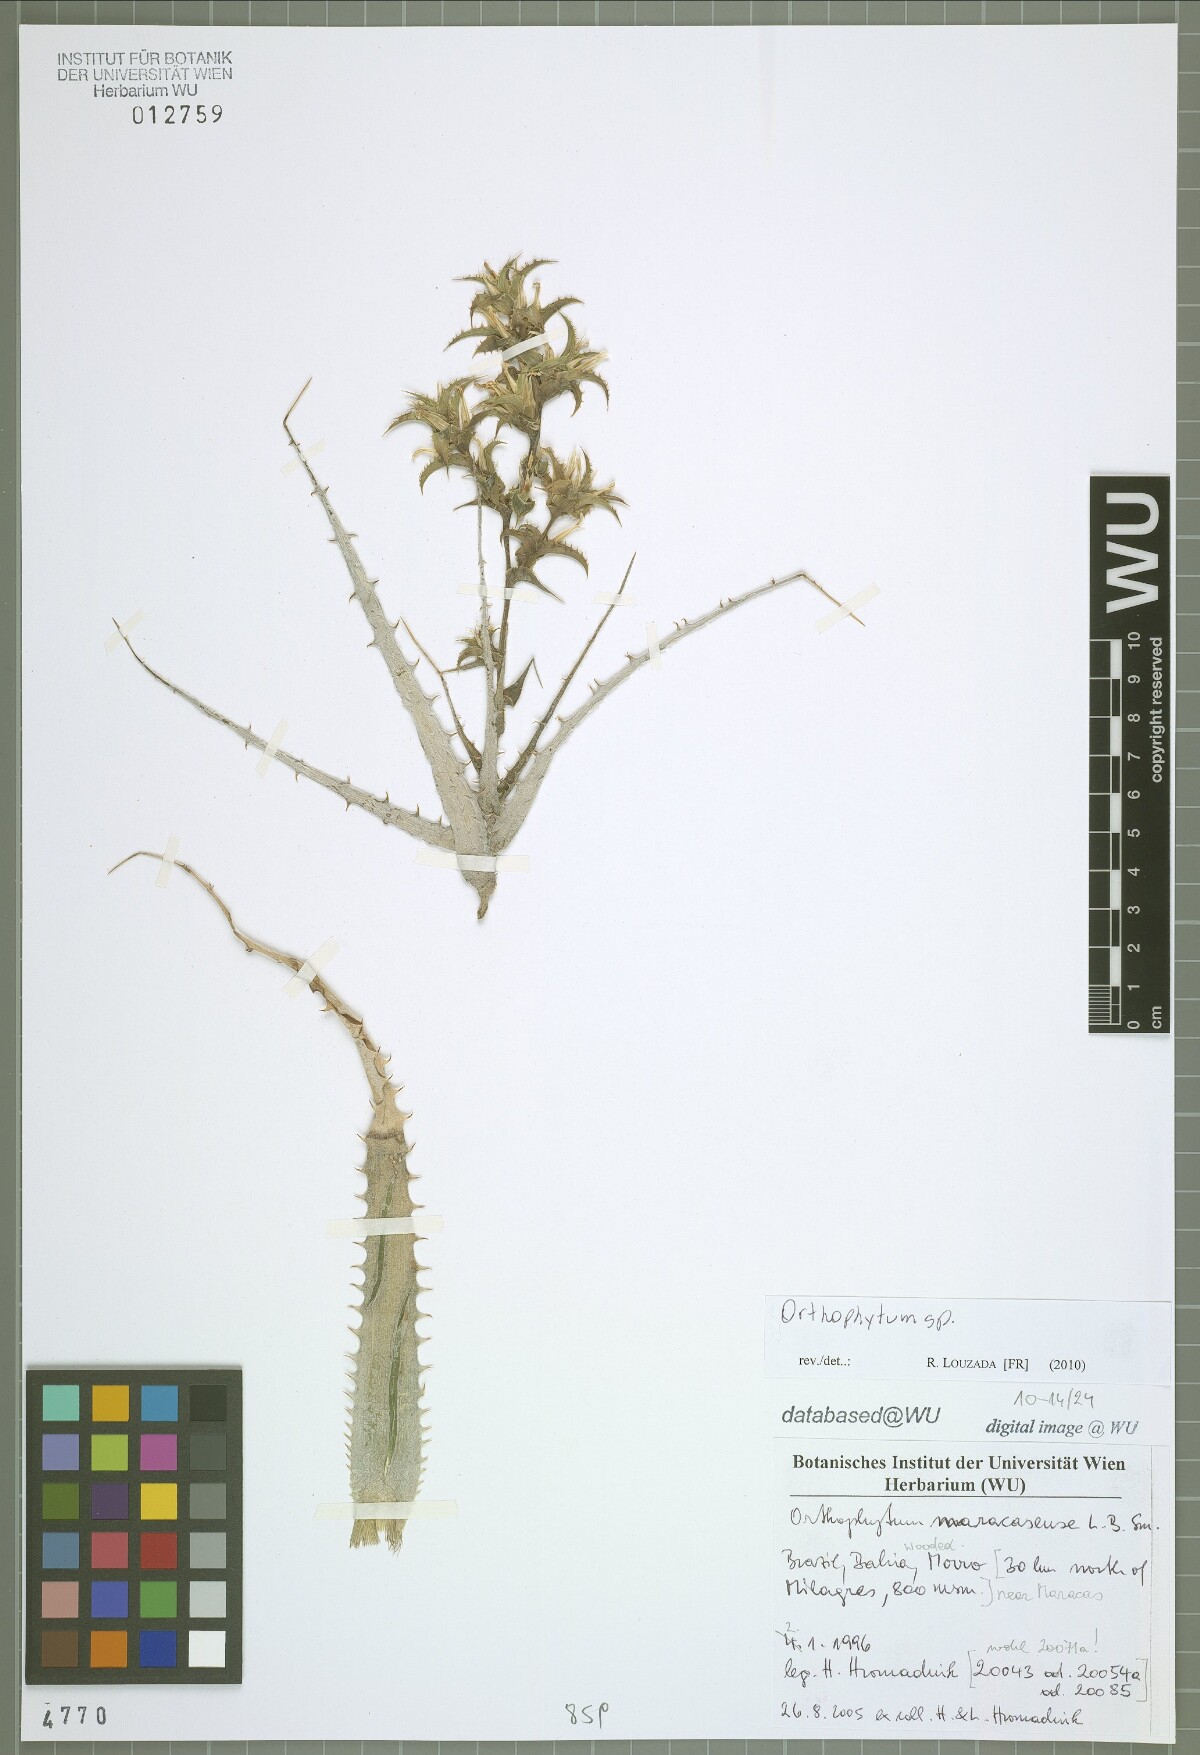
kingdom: Plantae
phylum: Tracheophyta
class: Liliopsida
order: Poales
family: Bromeliaceae
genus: Orthophytum
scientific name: Orthophytum
